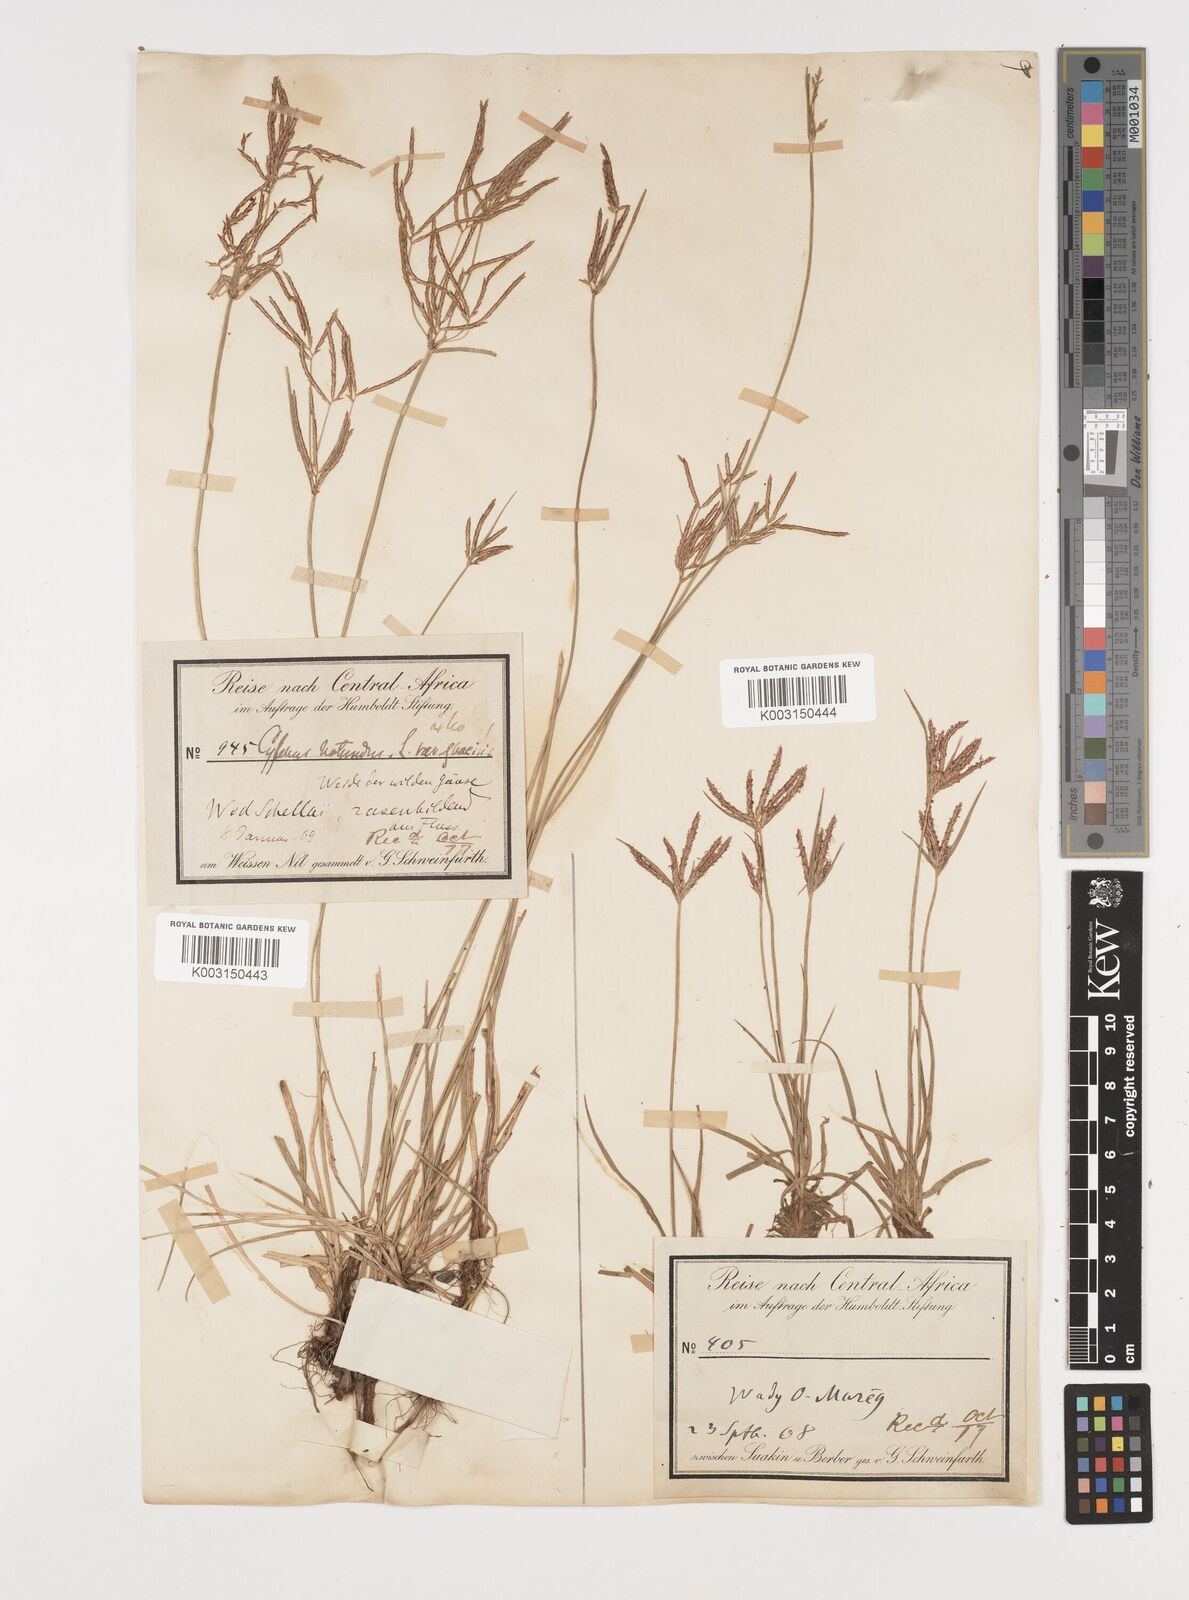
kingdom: Plantae
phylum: Tracheophyta
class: Liliopsida
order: Poales
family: Cyperaceae
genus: Cyperus
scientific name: Cyperus rotundus
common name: Nutgrass
